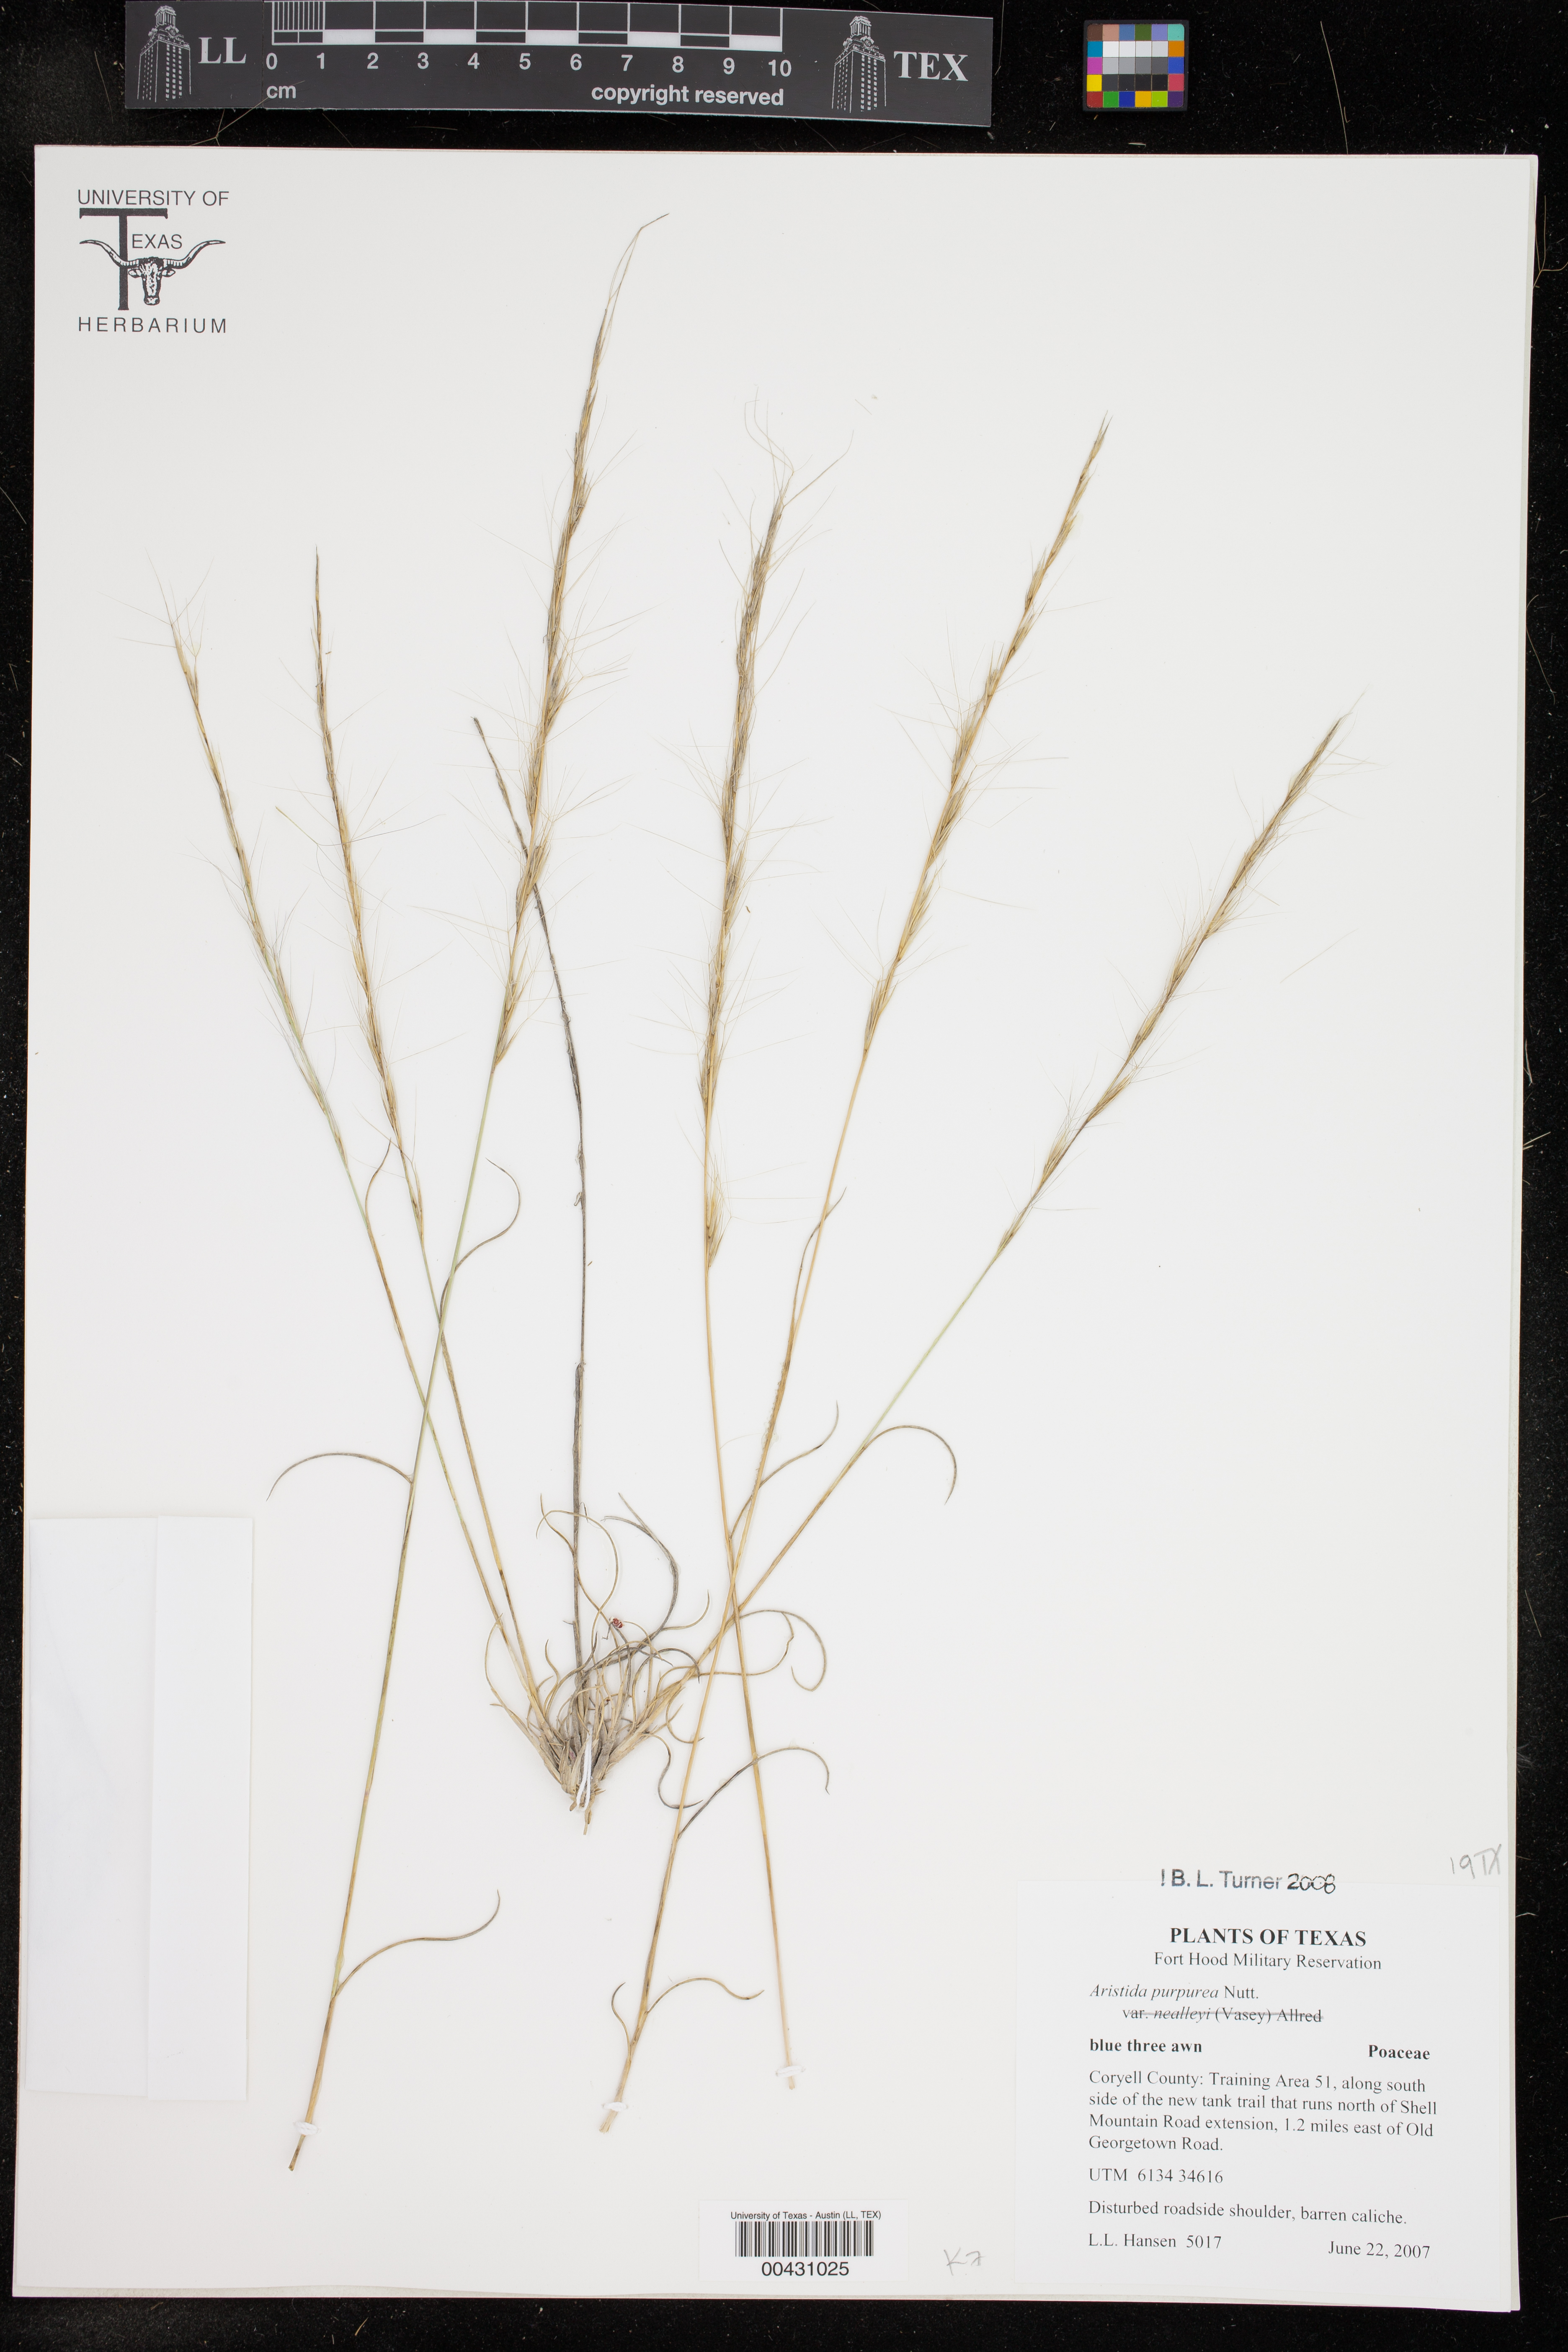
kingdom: Plantae
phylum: Tracheophyta
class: Liliopsida
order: Poales
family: Poaceae
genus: Aristida
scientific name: Aristida purpurea
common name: Purple threeawn
